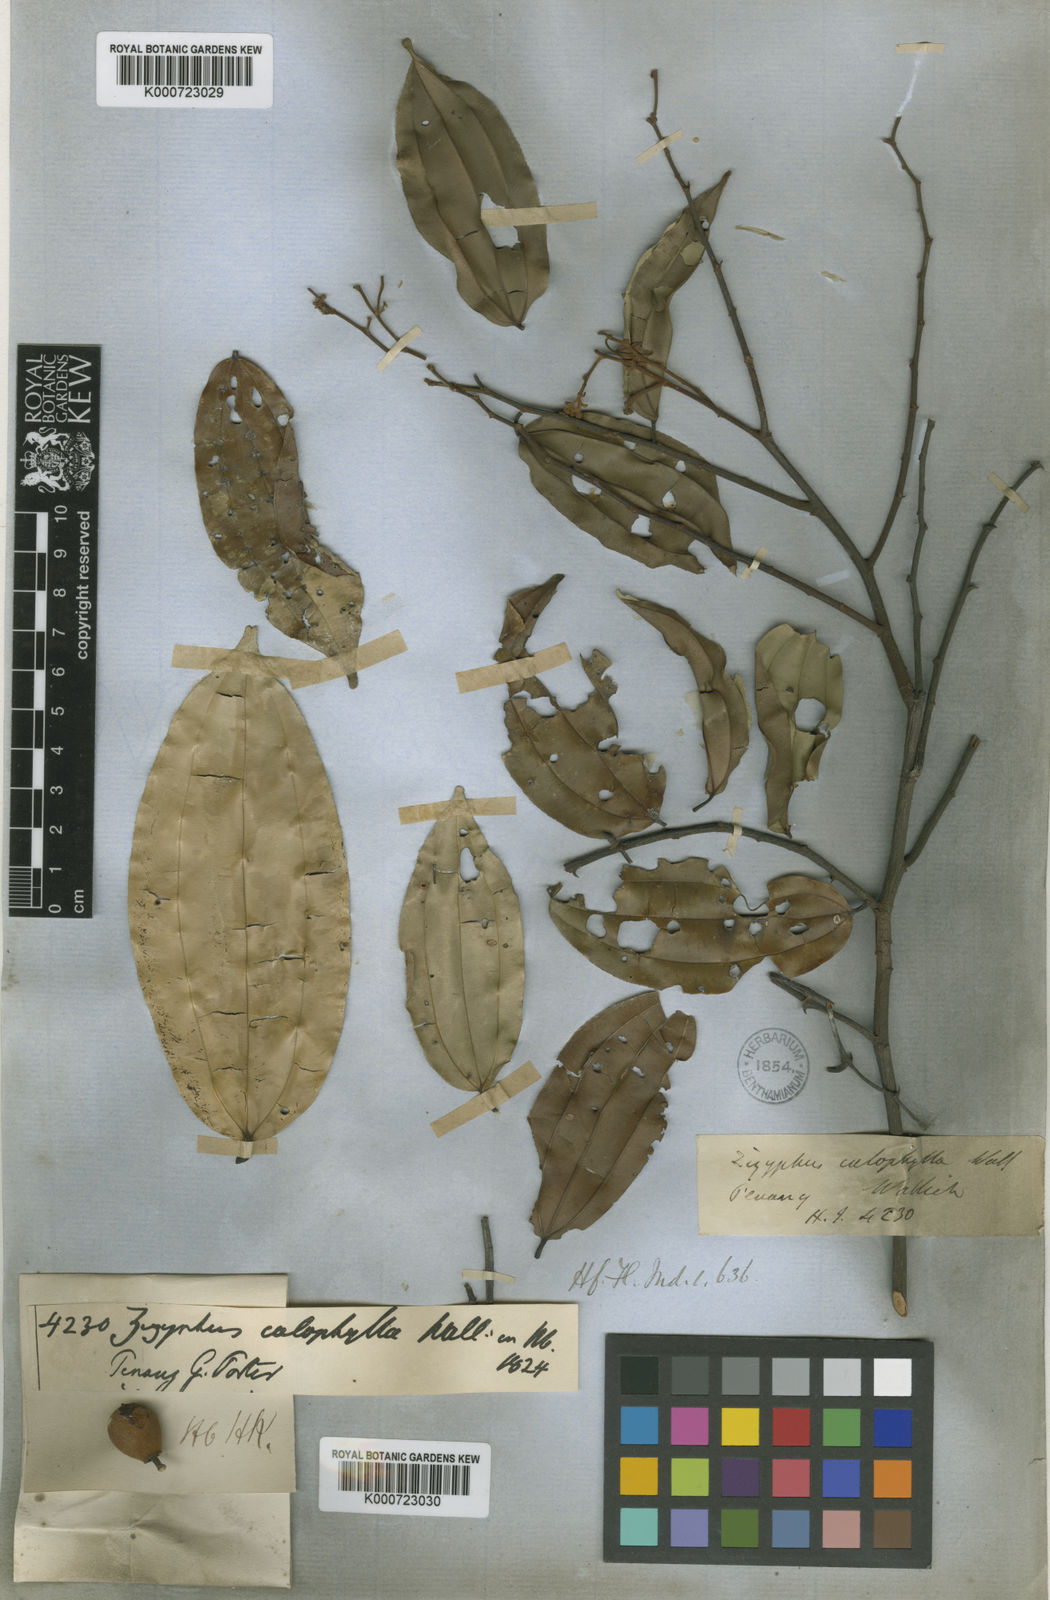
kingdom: Plantae
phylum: Tracheophyta
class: Magnoliopsida
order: Rosales
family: Rhamnaceae
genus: Ziziphus
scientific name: Ziziphus calophylla
